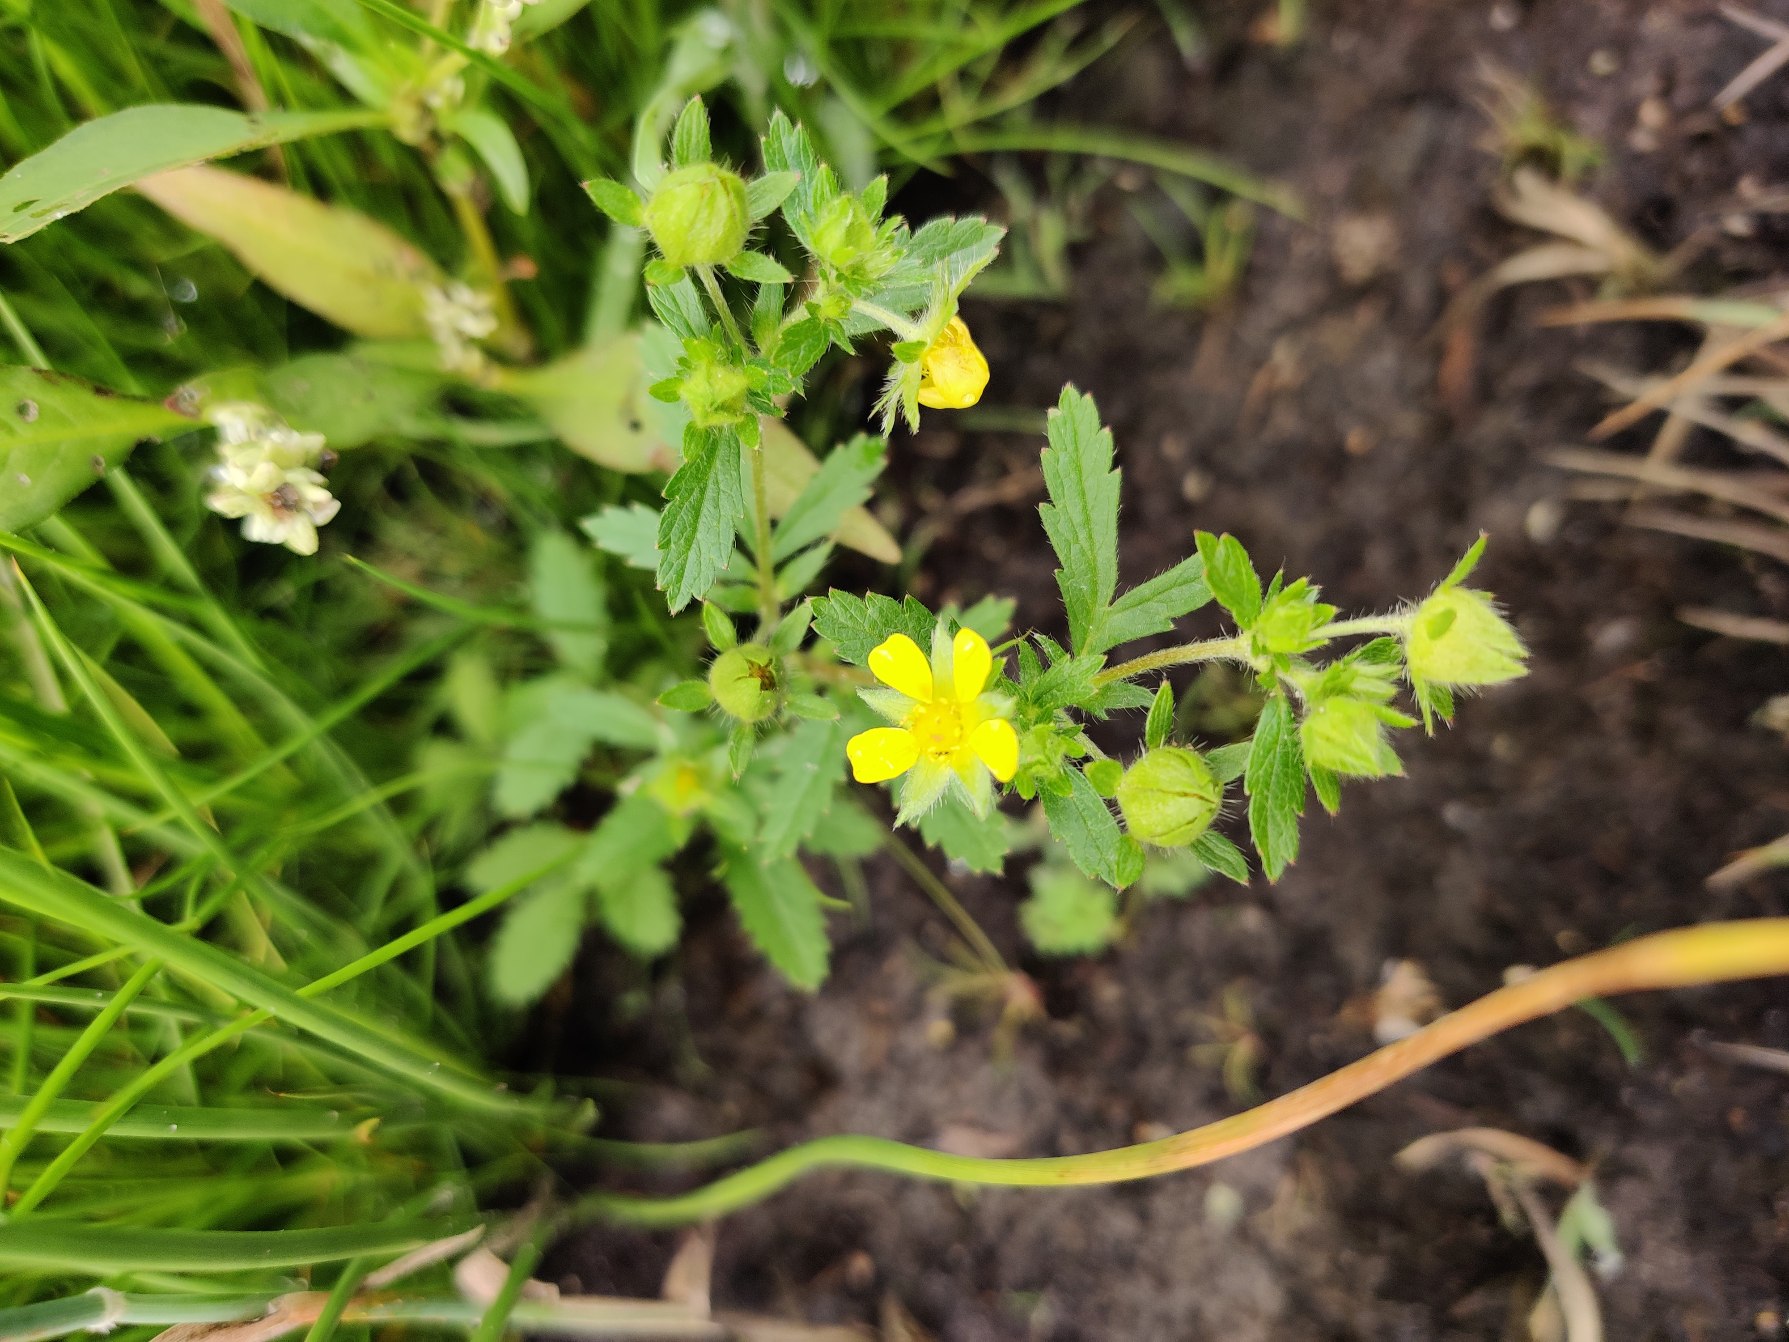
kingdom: Plantae
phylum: Tracheophyta
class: Magnoliopsida
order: Rosales
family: Rosaceae
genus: Potentilla
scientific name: Potentilla norvegica
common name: Norsk potentil
